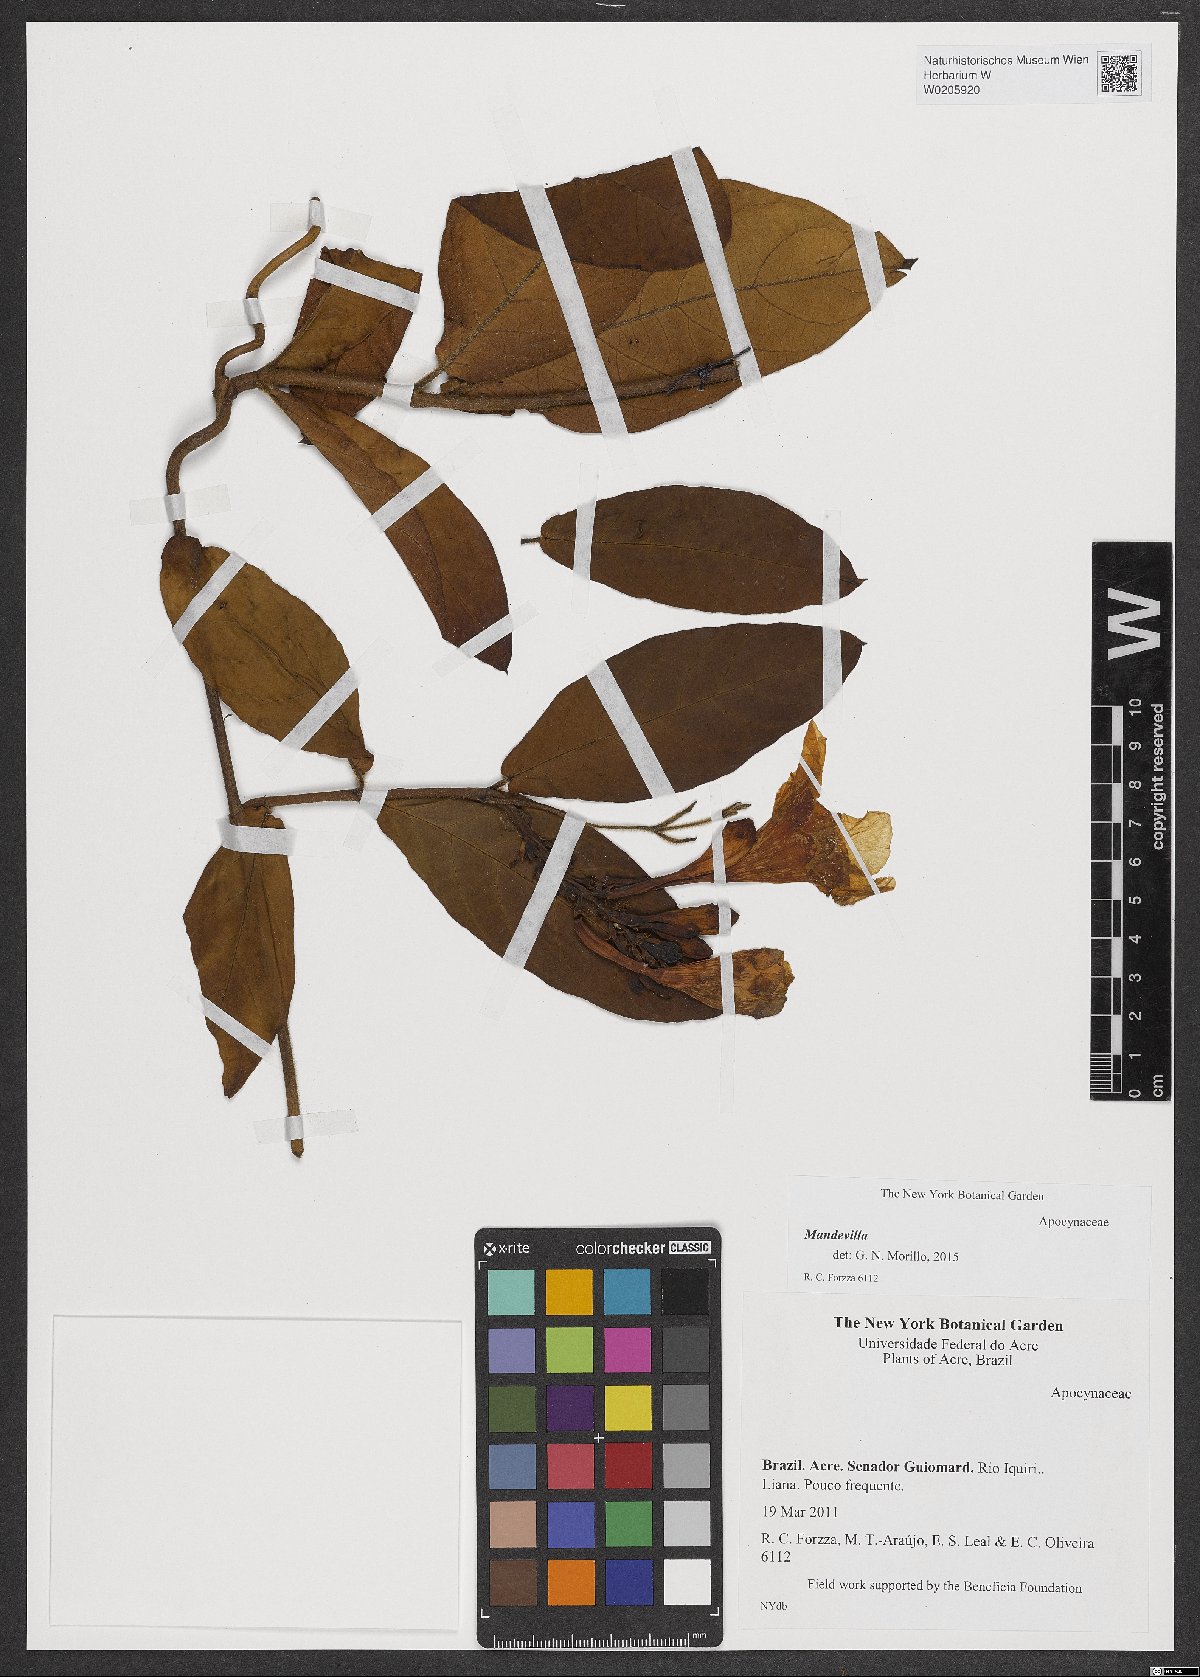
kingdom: Plantae
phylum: Tracheophyta
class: Magnoliopsida
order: Gentianales
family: Apocynaceae
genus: Mandevilla
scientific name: Mandevilla
